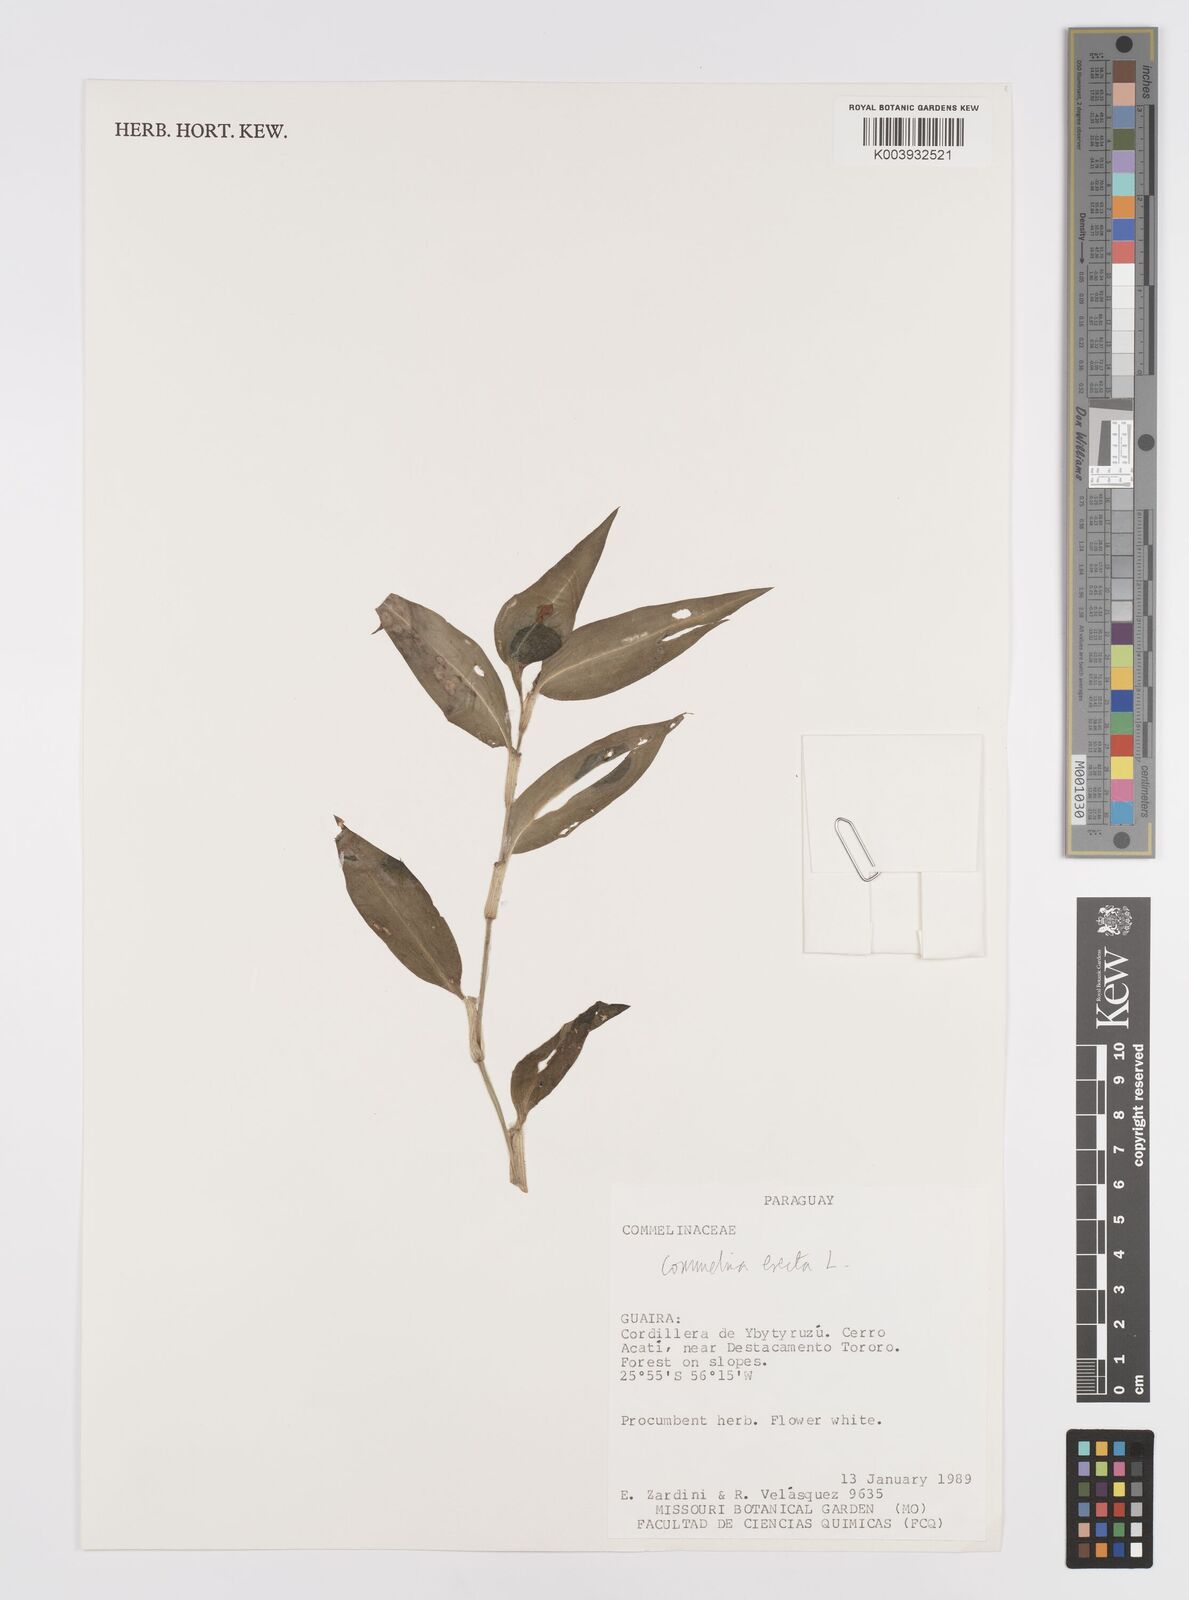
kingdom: Plantae
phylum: Tracheophyta
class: Liliopsida
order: Commelinales
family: Commelinaceae
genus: Commelina
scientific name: Commelina erecta
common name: Blousel blommetjie
